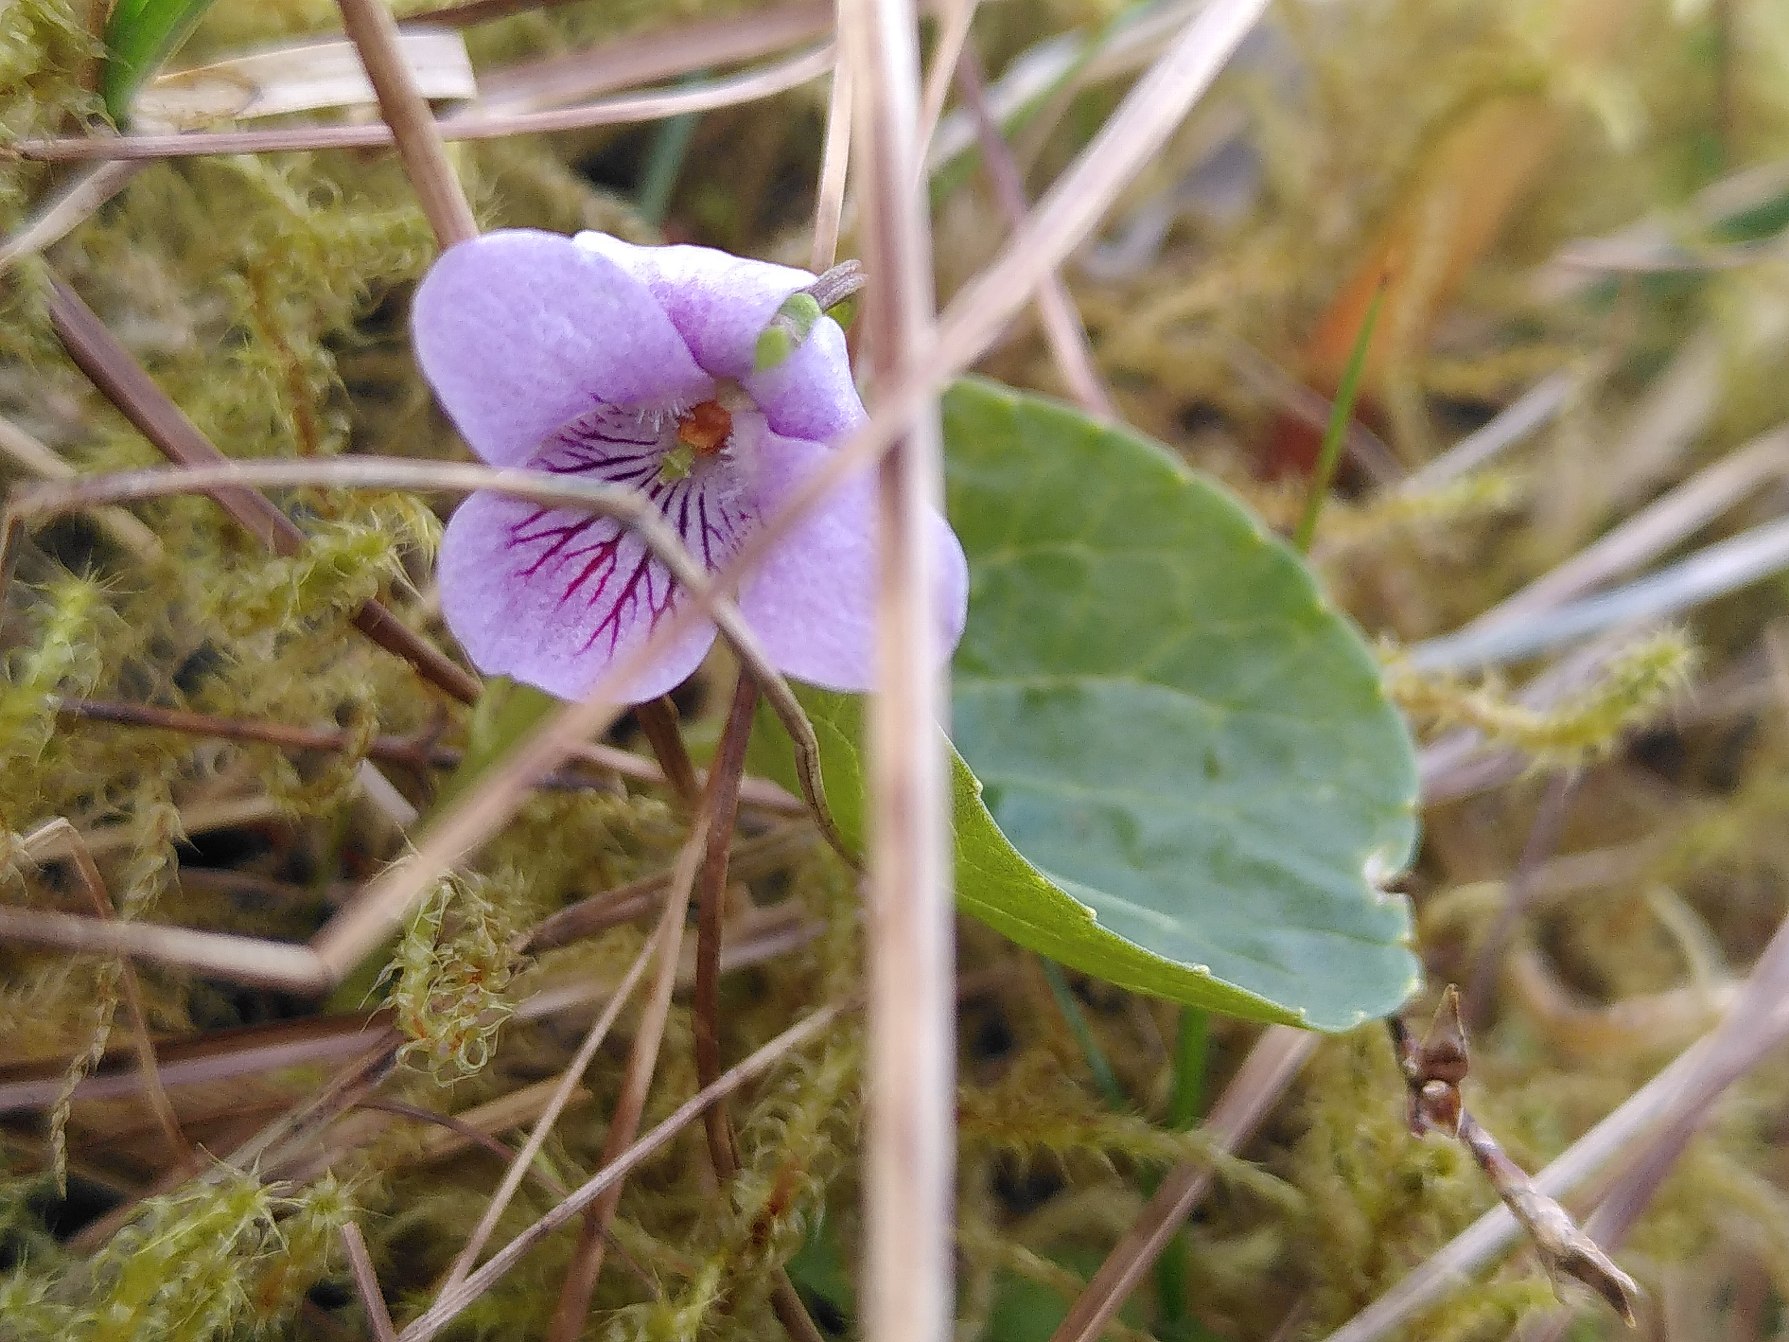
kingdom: Plantae
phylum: Tracheophyta
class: Magnoliopsida
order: Malpighiales
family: Violaceae
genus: Viola
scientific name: Viola palustris
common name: Eng-viol
